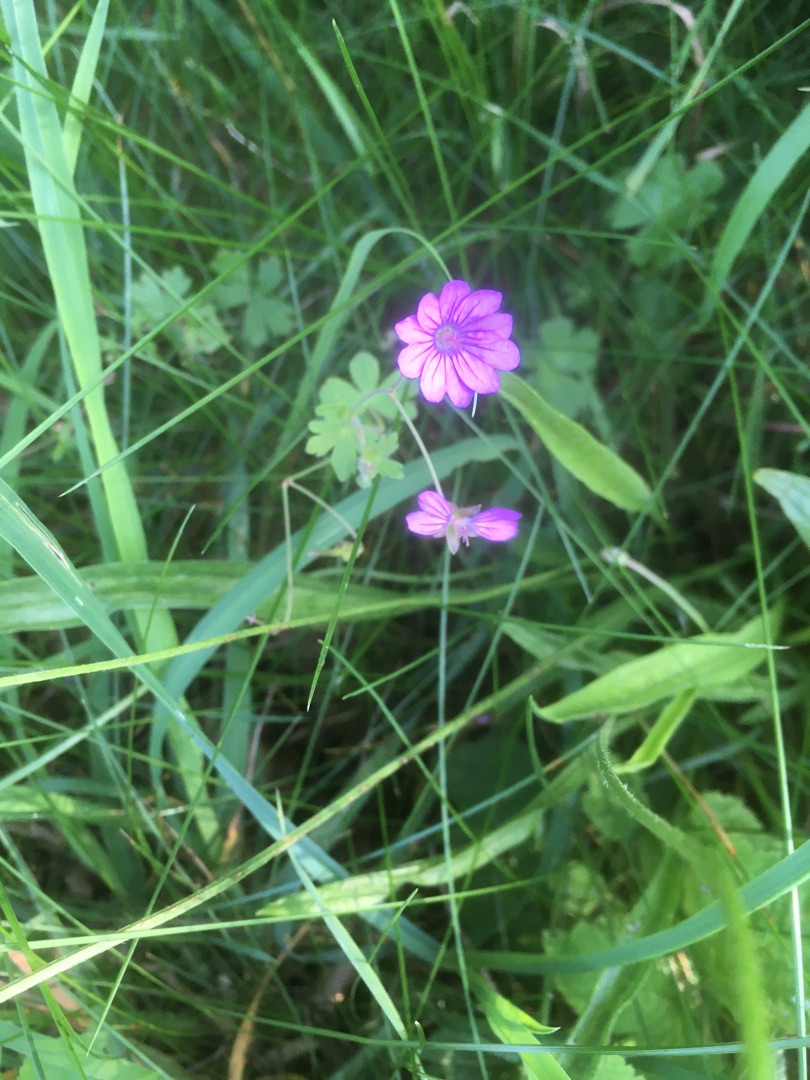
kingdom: Plantae
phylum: Tracheophyta
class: Magnoliopsida
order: Geraniales
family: Geraniaceae
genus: Geranium
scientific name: Geranium pyrenaicum
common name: Pyrenæisk storkenæb
